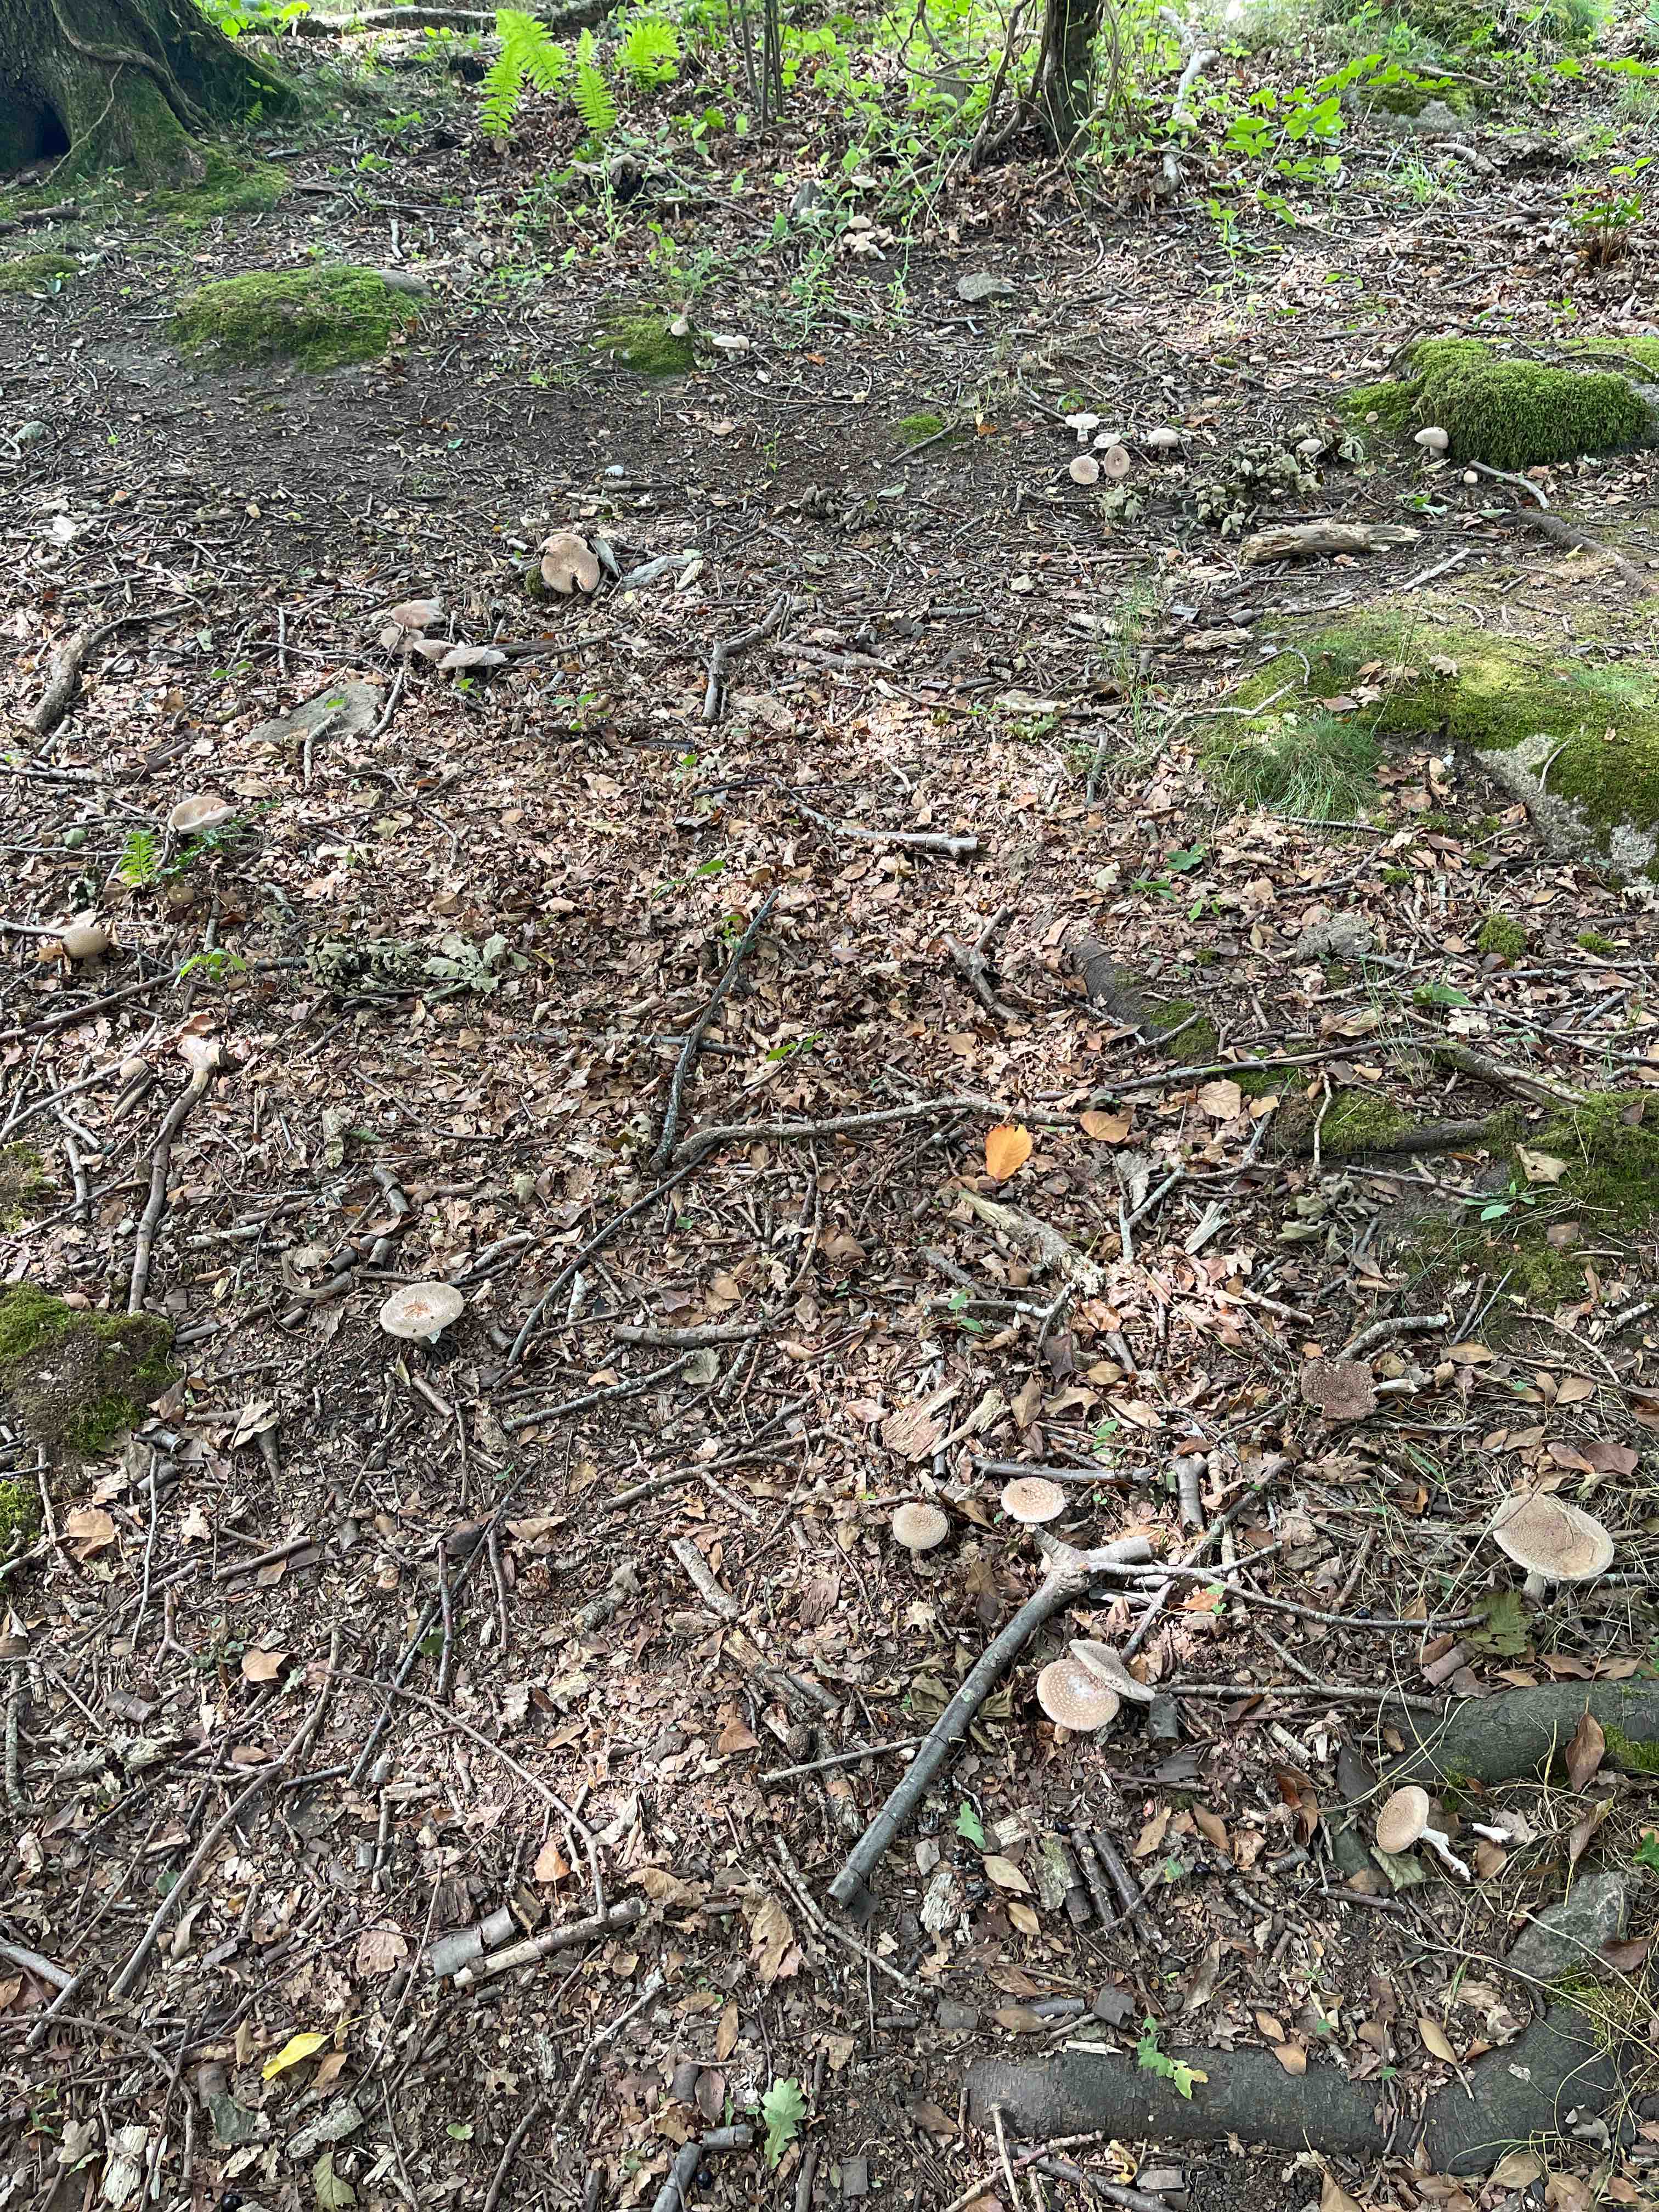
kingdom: Fungi
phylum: Basidiomycota
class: Agaricomycetes
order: Agaricales
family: Amanitaceae
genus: Amanita
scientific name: Amanita rubescens
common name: rødmende fluesvamp
